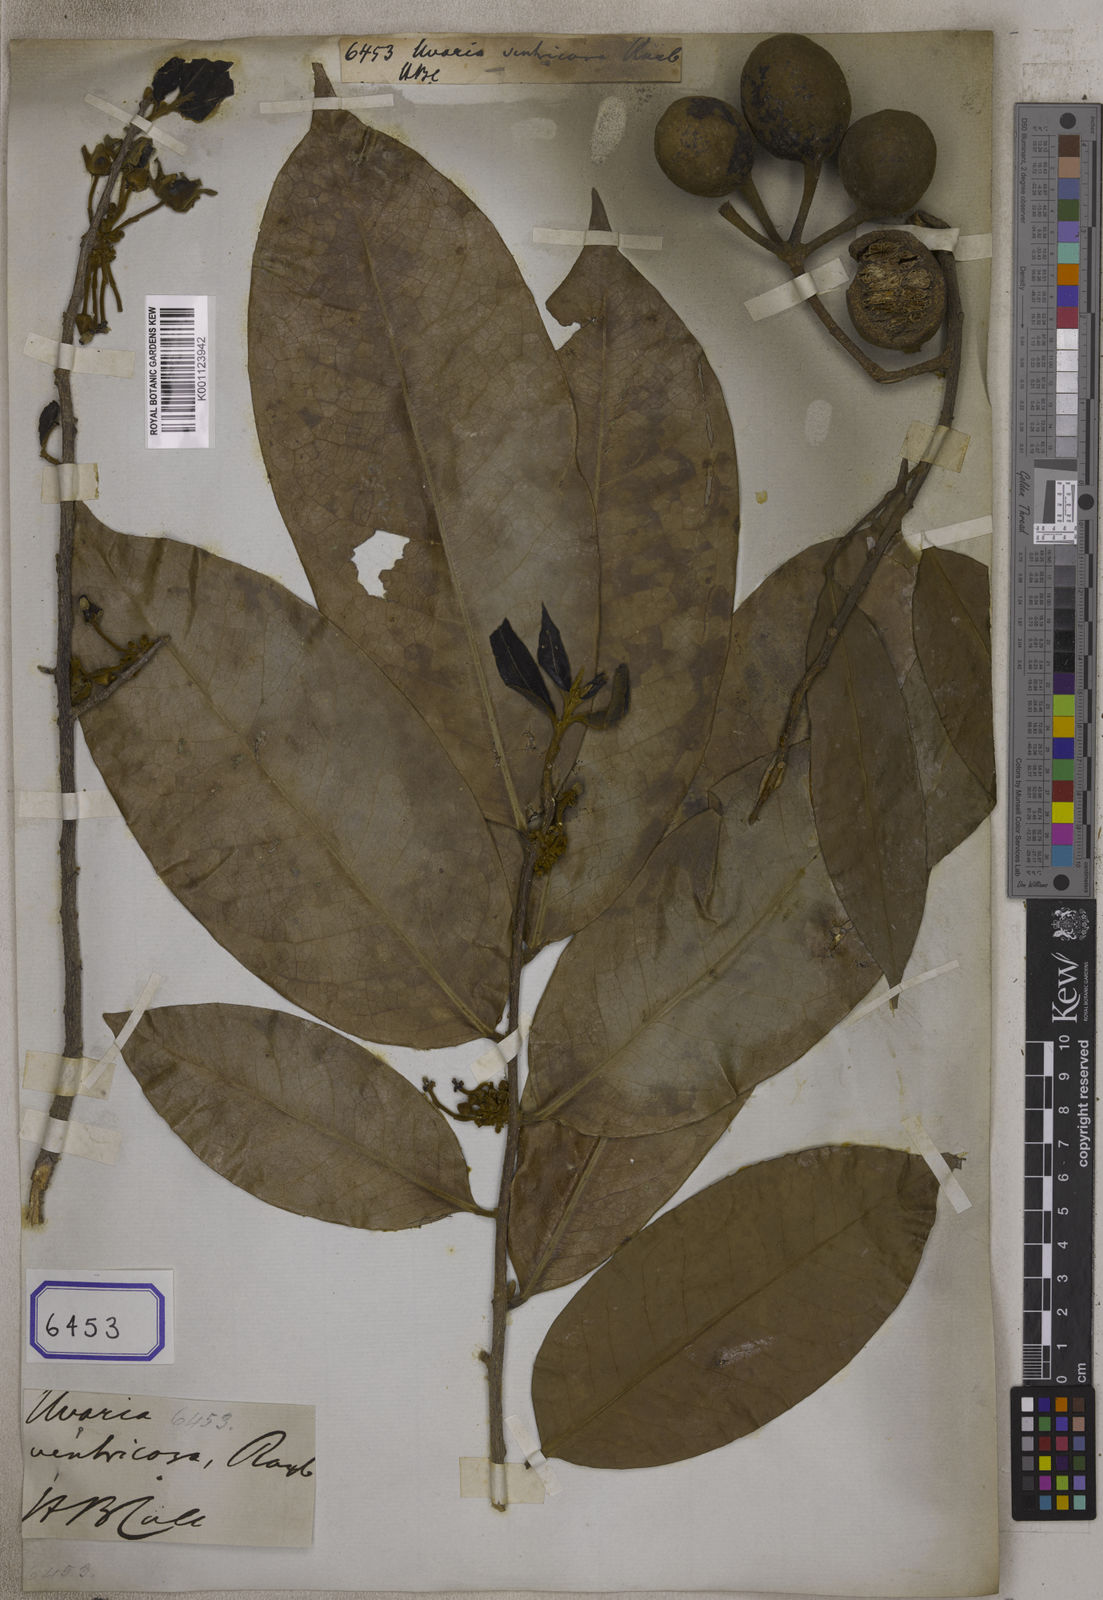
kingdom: Plantae
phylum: Tracheophyta
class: Magnoliopsida
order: Magnoliales
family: Annonaceae
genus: Alphonsea
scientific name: Alphonsea ventricosa
